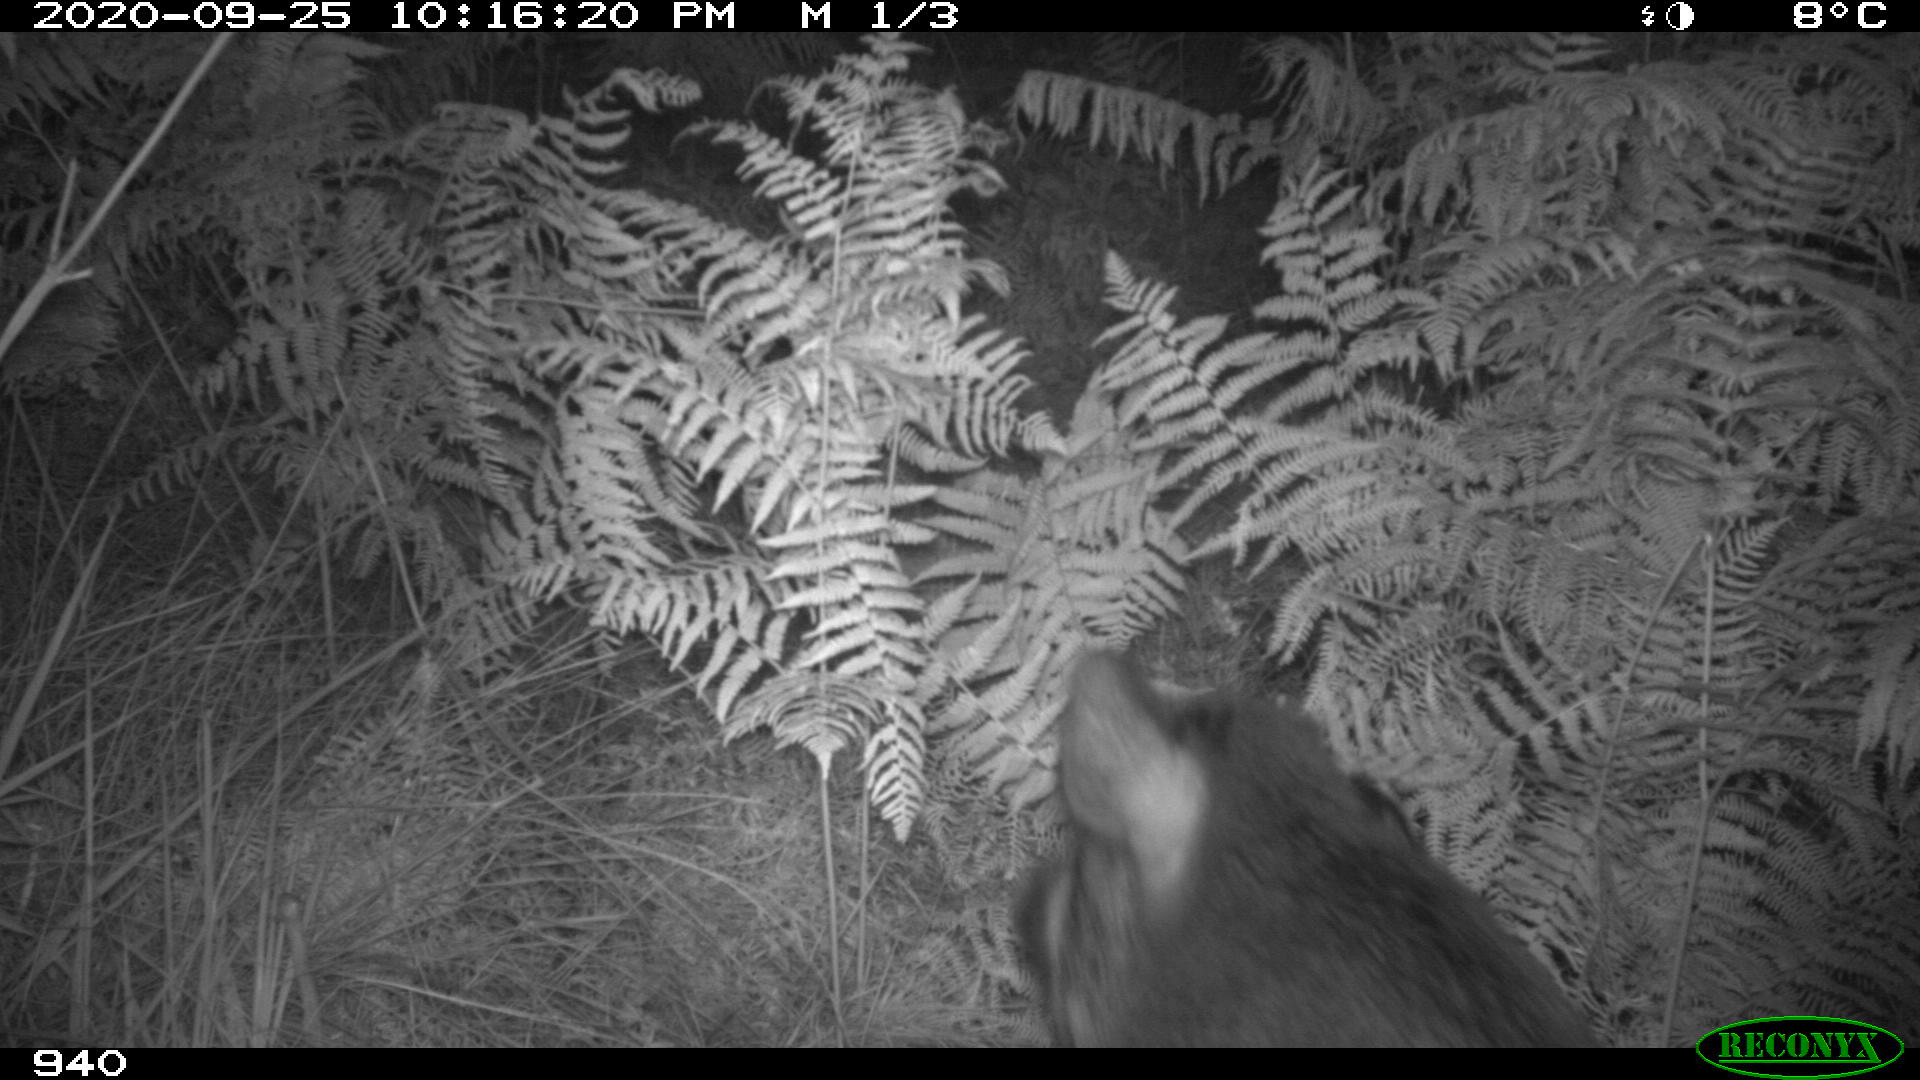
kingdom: Animalia
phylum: Chordata
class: Mammalia
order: Artiodactyla
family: Suidae
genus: Sus
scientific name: Sus scrofa
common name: Wild boar
